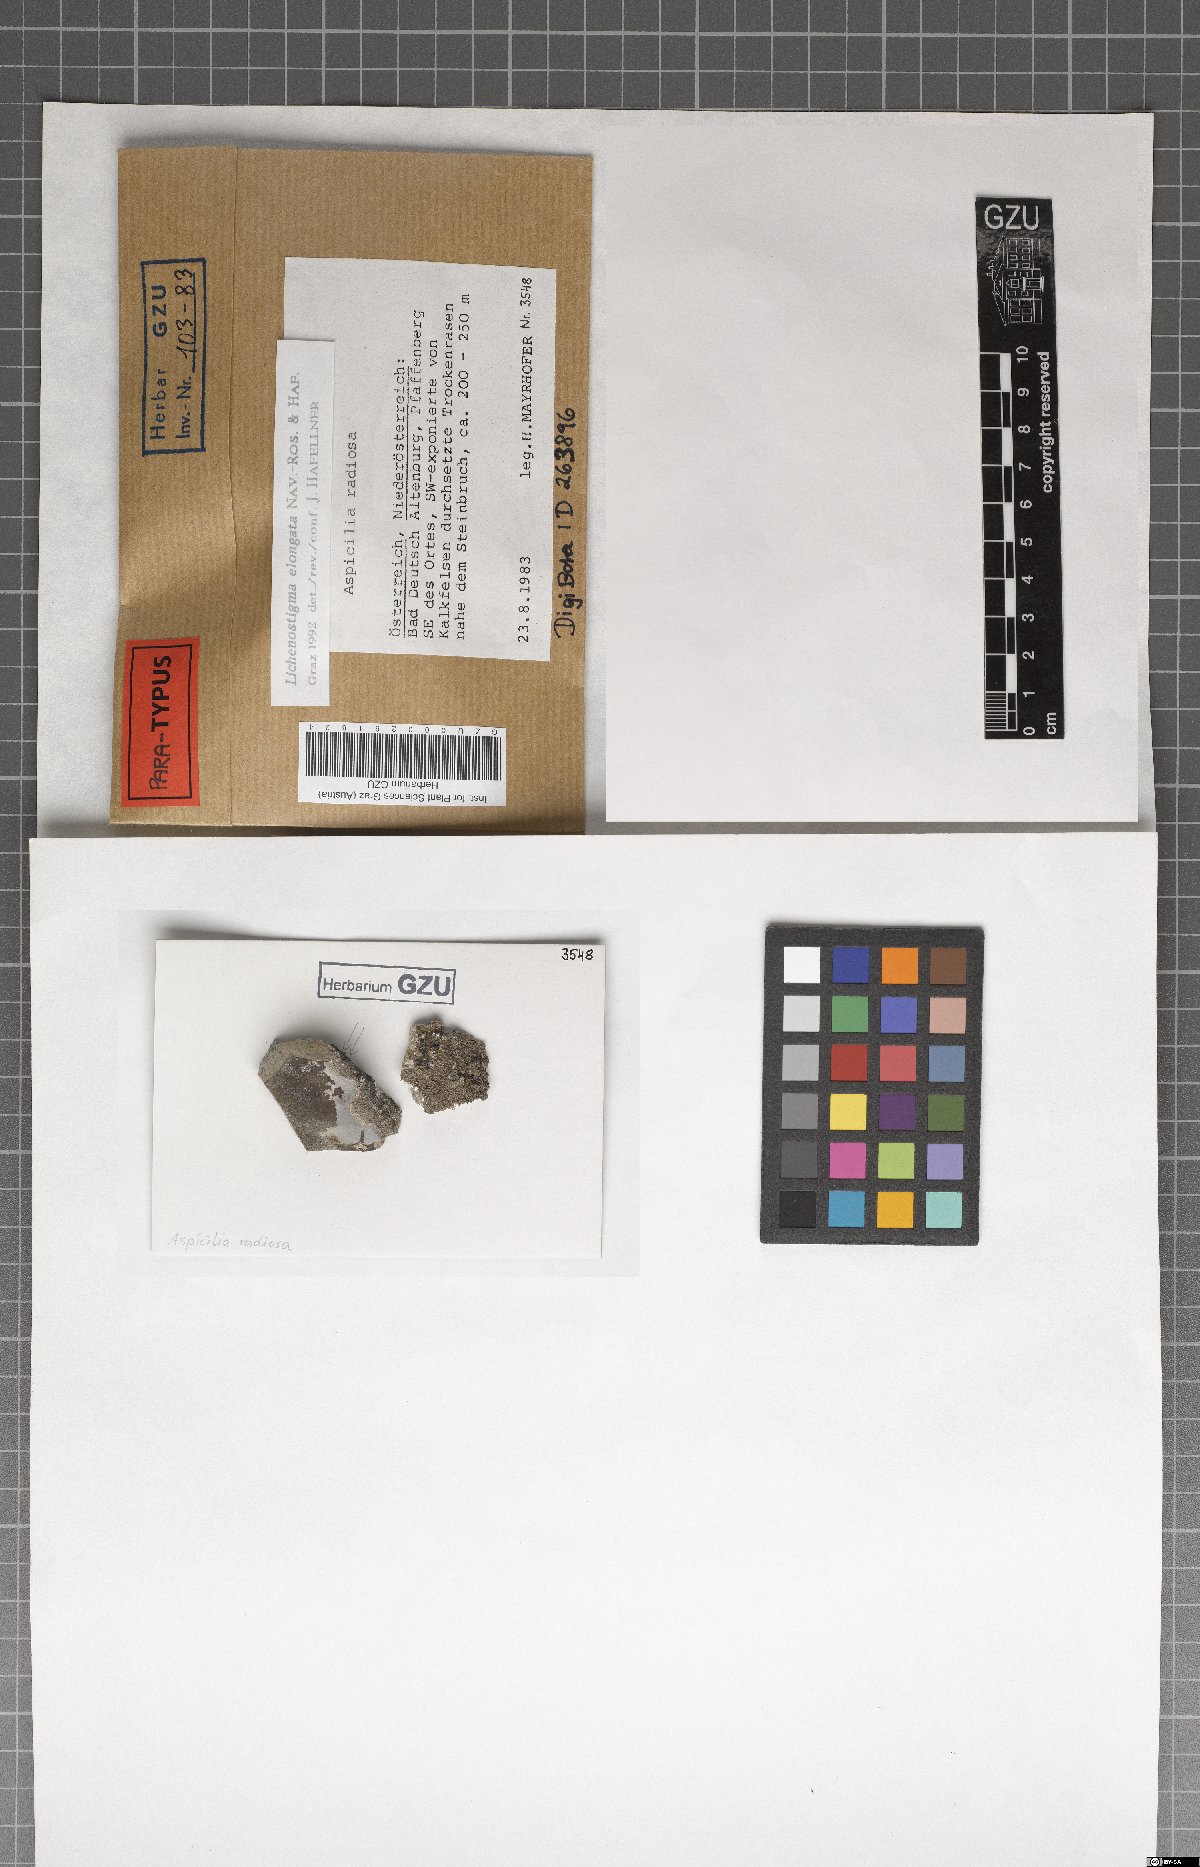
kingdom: Fungi
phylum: Ascomycota
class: Arthoniomycetes
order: Lichenostigmatales
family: Phaeococcomycetaceae
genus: Lichenostigma
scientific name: Lichenostigma elongatum
